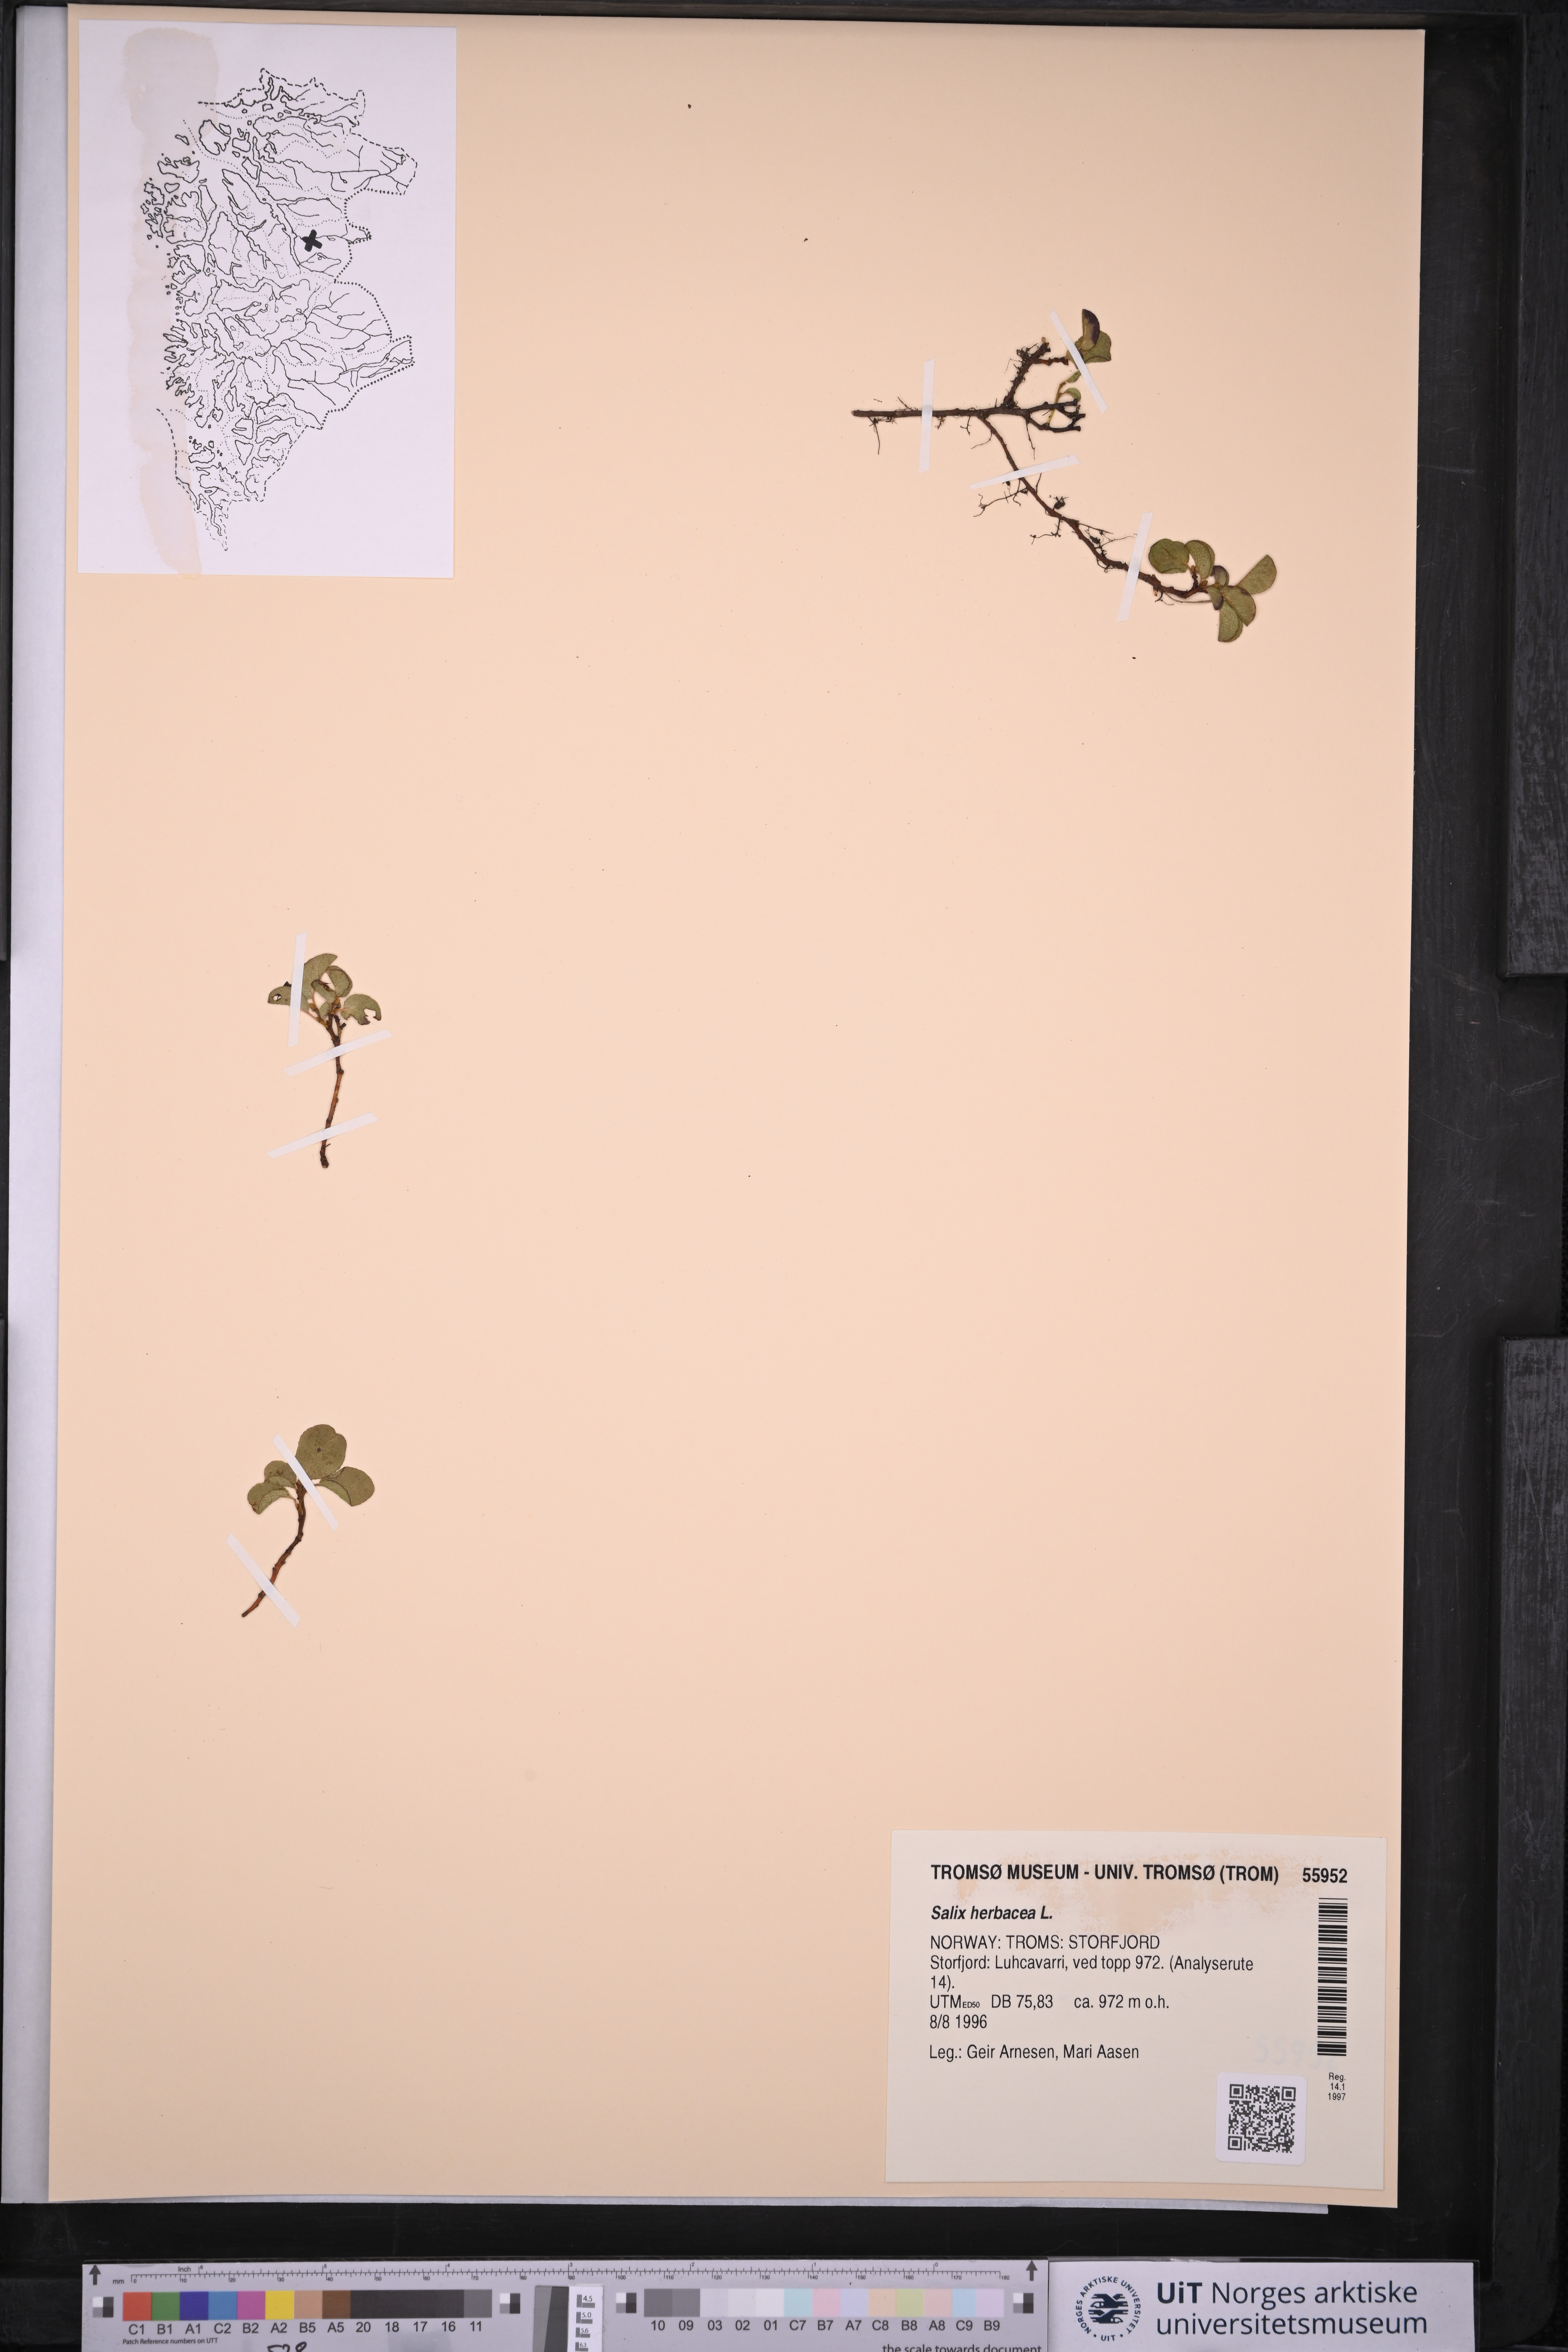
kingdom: Plantae
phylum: Tracheophyta
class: Magnoliopsida
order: Malpighiales
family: Salicaceae
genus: Salix
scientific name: Salix herbacea
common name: Dwarf willow
